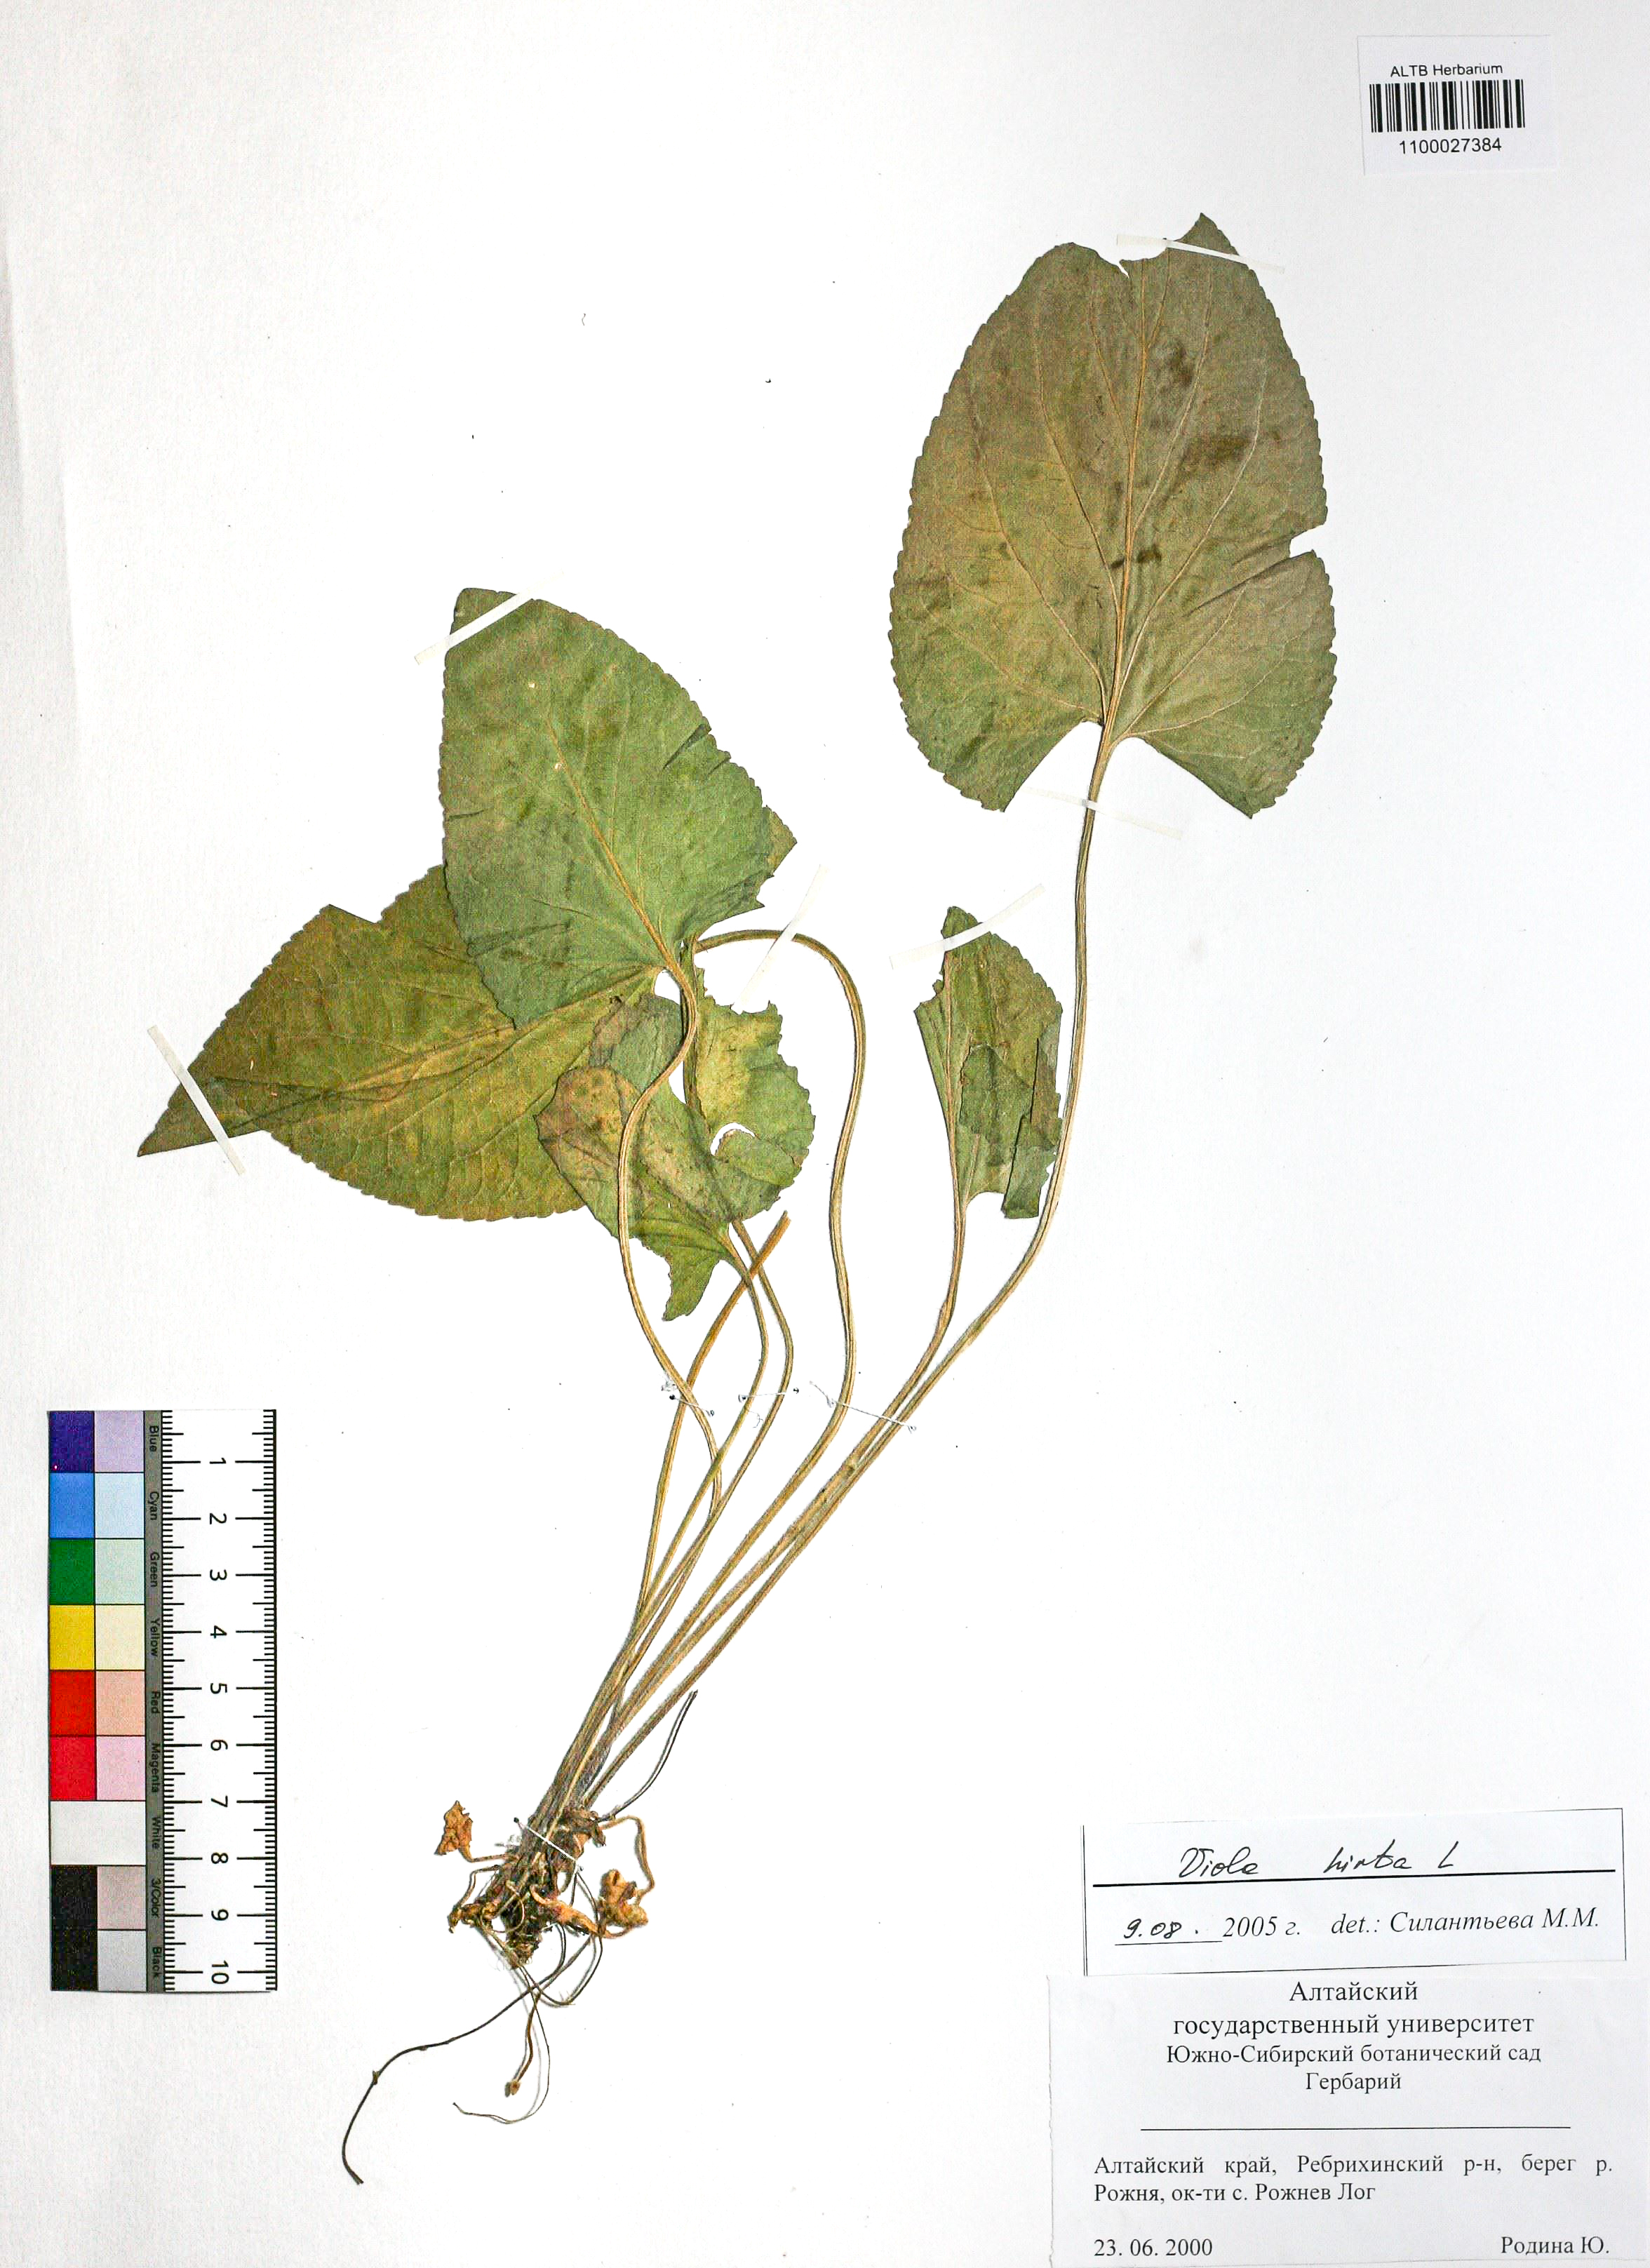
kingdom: Plantae
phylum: Tracheophyta
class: Magnoliopsida
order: Malpighiales
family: Violaceae
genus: Viola
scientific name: Viola hirta
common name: Hairy violet
